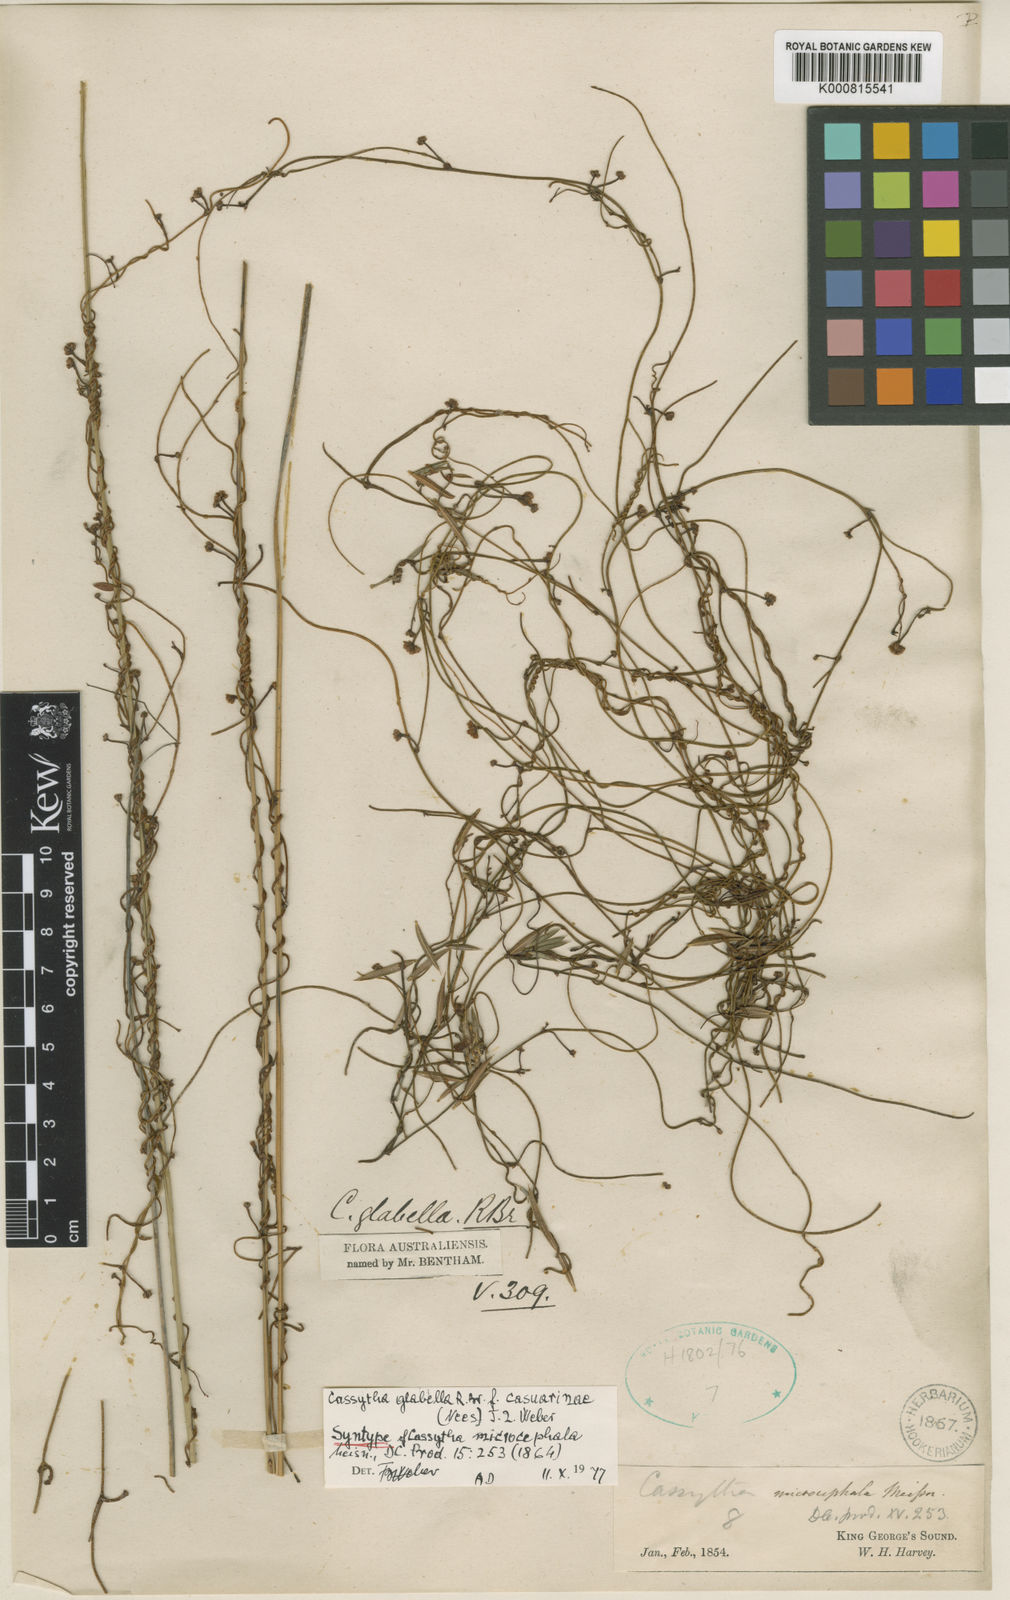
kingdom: Plantae
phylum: Tracheophyta
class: Magnoliopsida
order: Laurales
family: Lauraceae
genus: Cassytha
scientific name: Cassytha glabella
